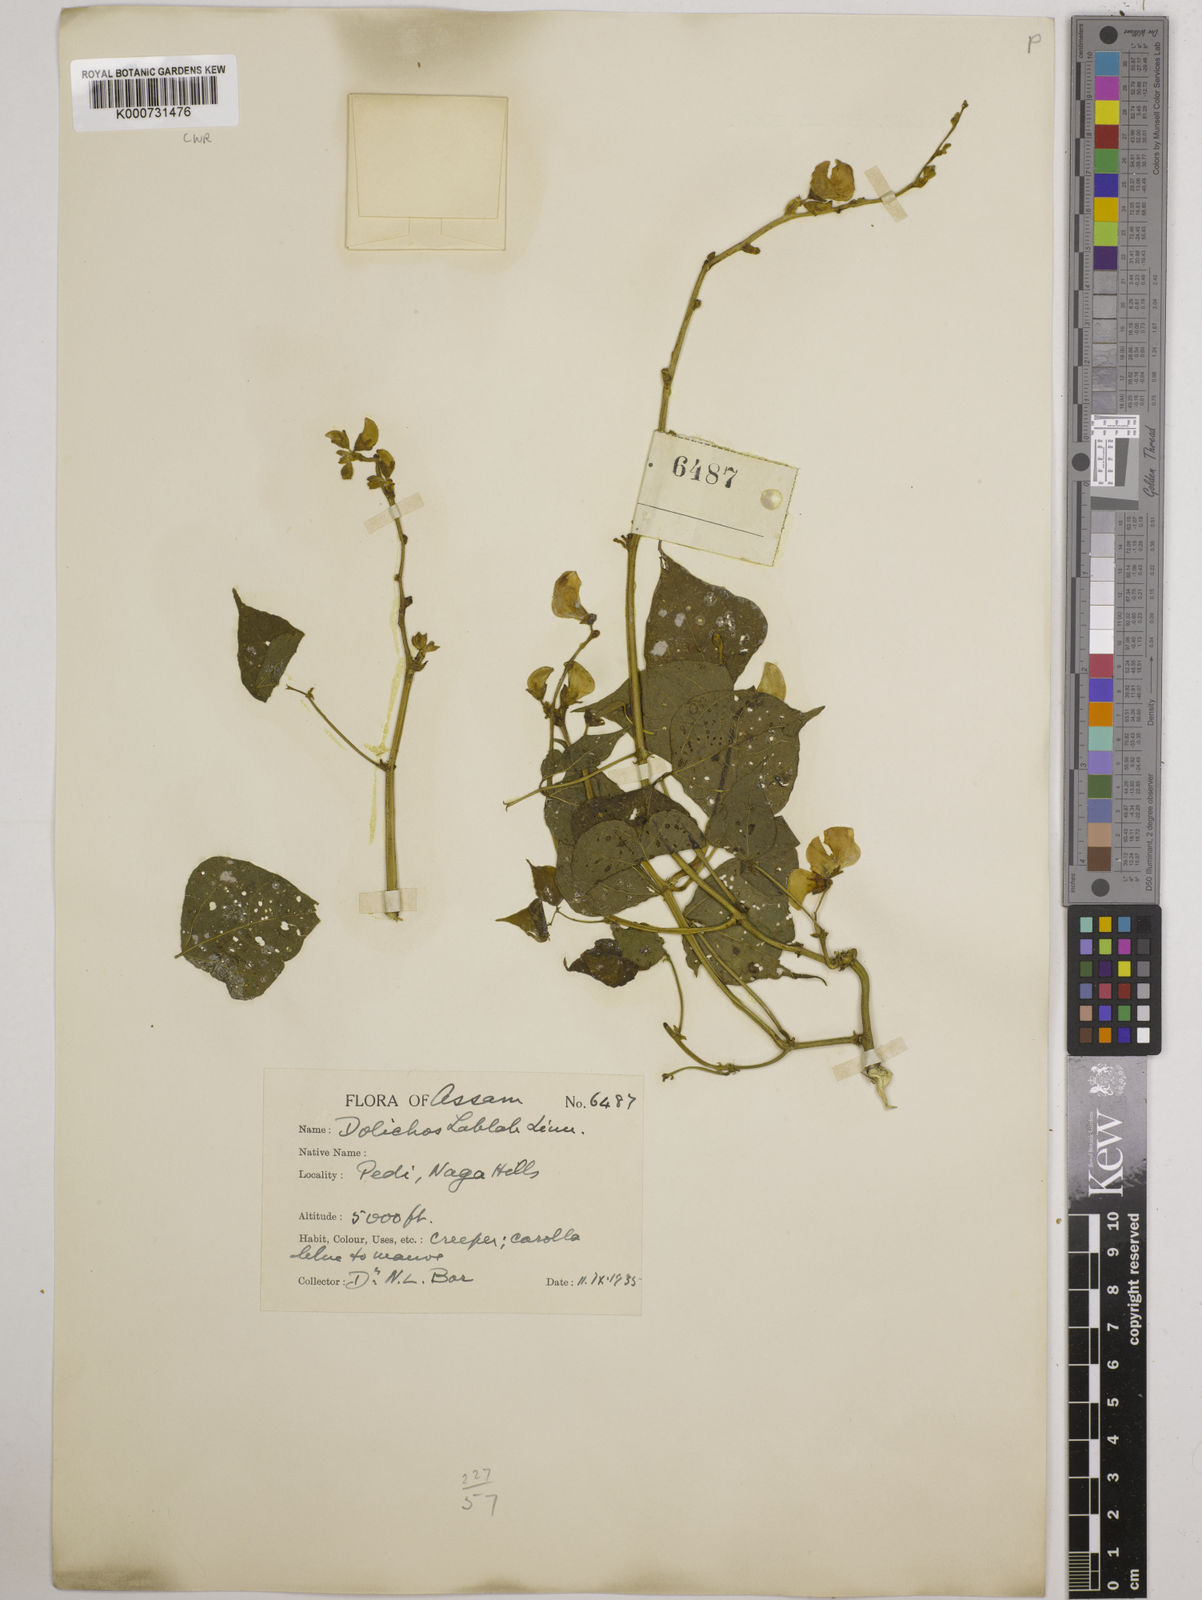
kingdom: Plantae
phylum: Tracheophyta
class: Magnoliopsida
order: Fabales
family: Fabaceae
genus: Lablab
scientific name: Lablab purpureus
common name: Lablab-bean
